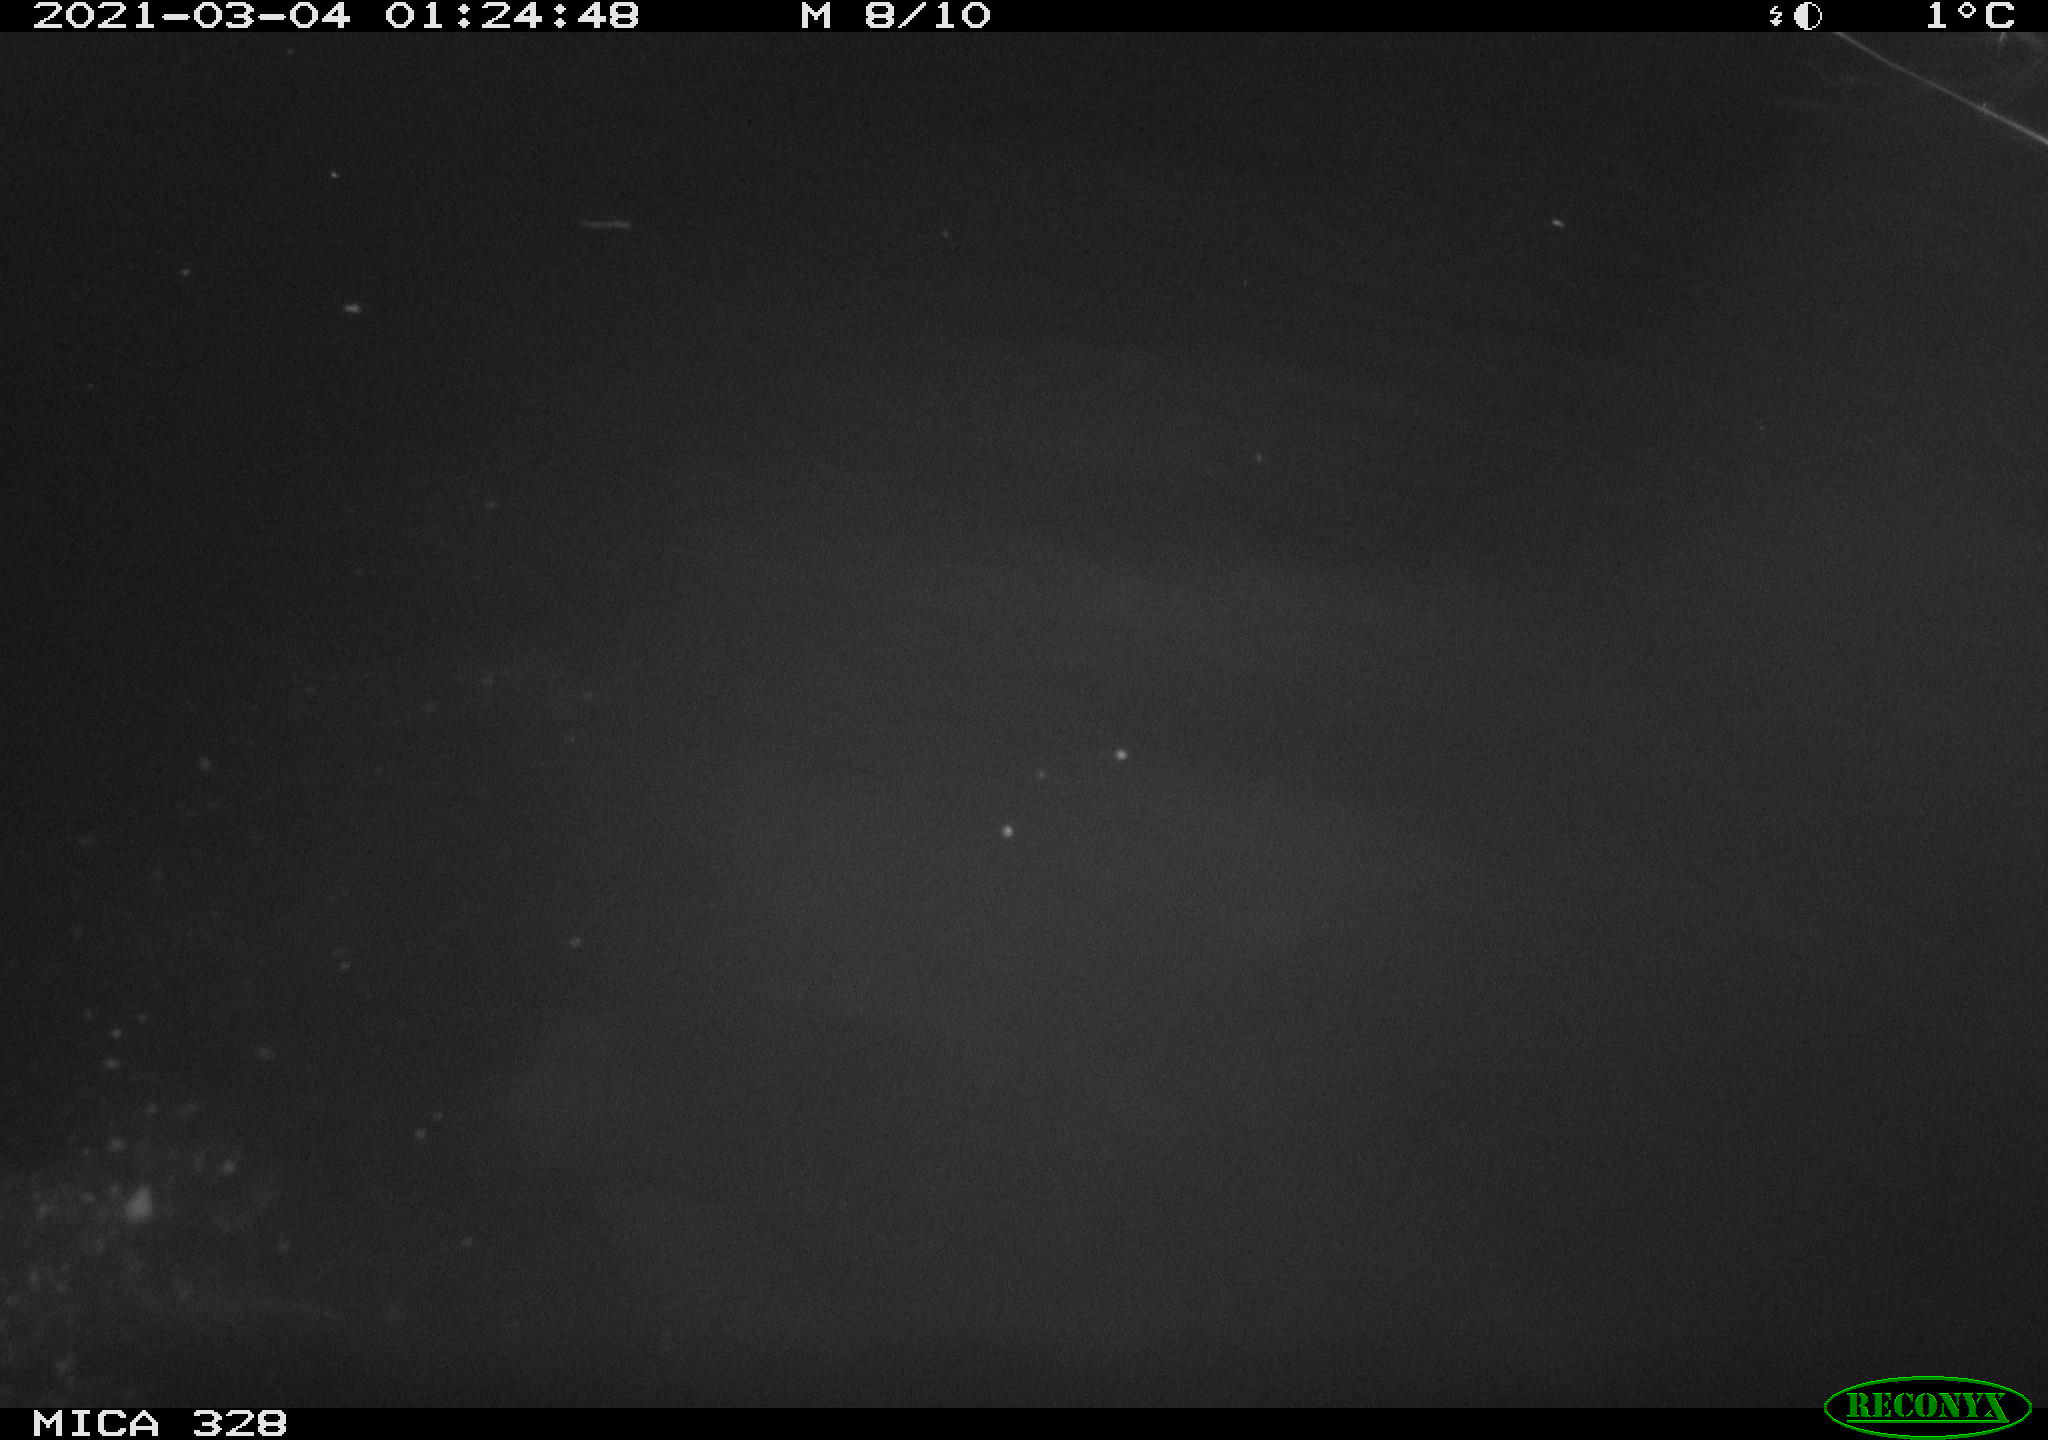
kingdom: Animalia
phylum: Chordata
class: Mammalia
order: Rodentia
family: Cricetidae
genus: Ondatra
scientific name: Ondatra zibethicus
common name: Muskrat
